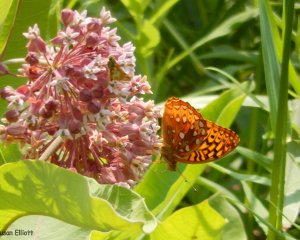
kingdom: Animalia
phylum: Arthropoda
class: Insecta
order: Lepidoptera
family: Nymphalidae
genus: Speyeria
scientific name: Speyeria cybele
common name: Great Spangled Fritillary
